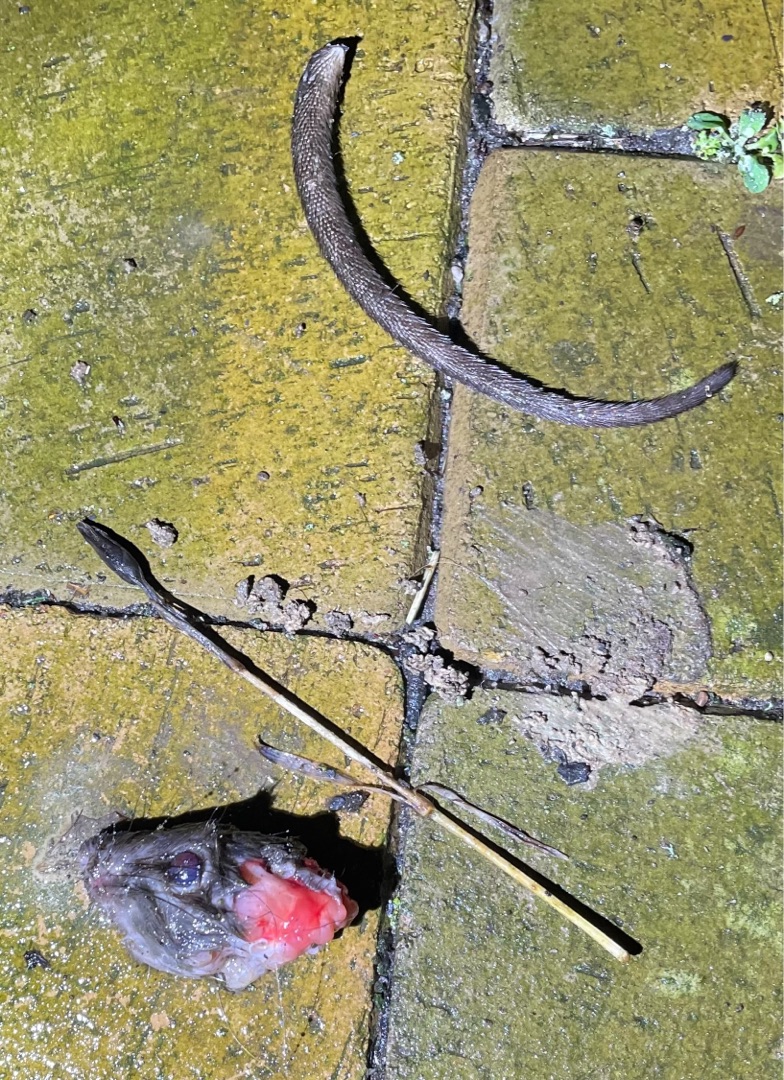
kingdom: Animalia
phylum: Chordata
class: Mammalia
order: Rodentia
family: Muridae
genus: Rattus
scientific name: Rattus norvegicus
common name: Brun rotte
